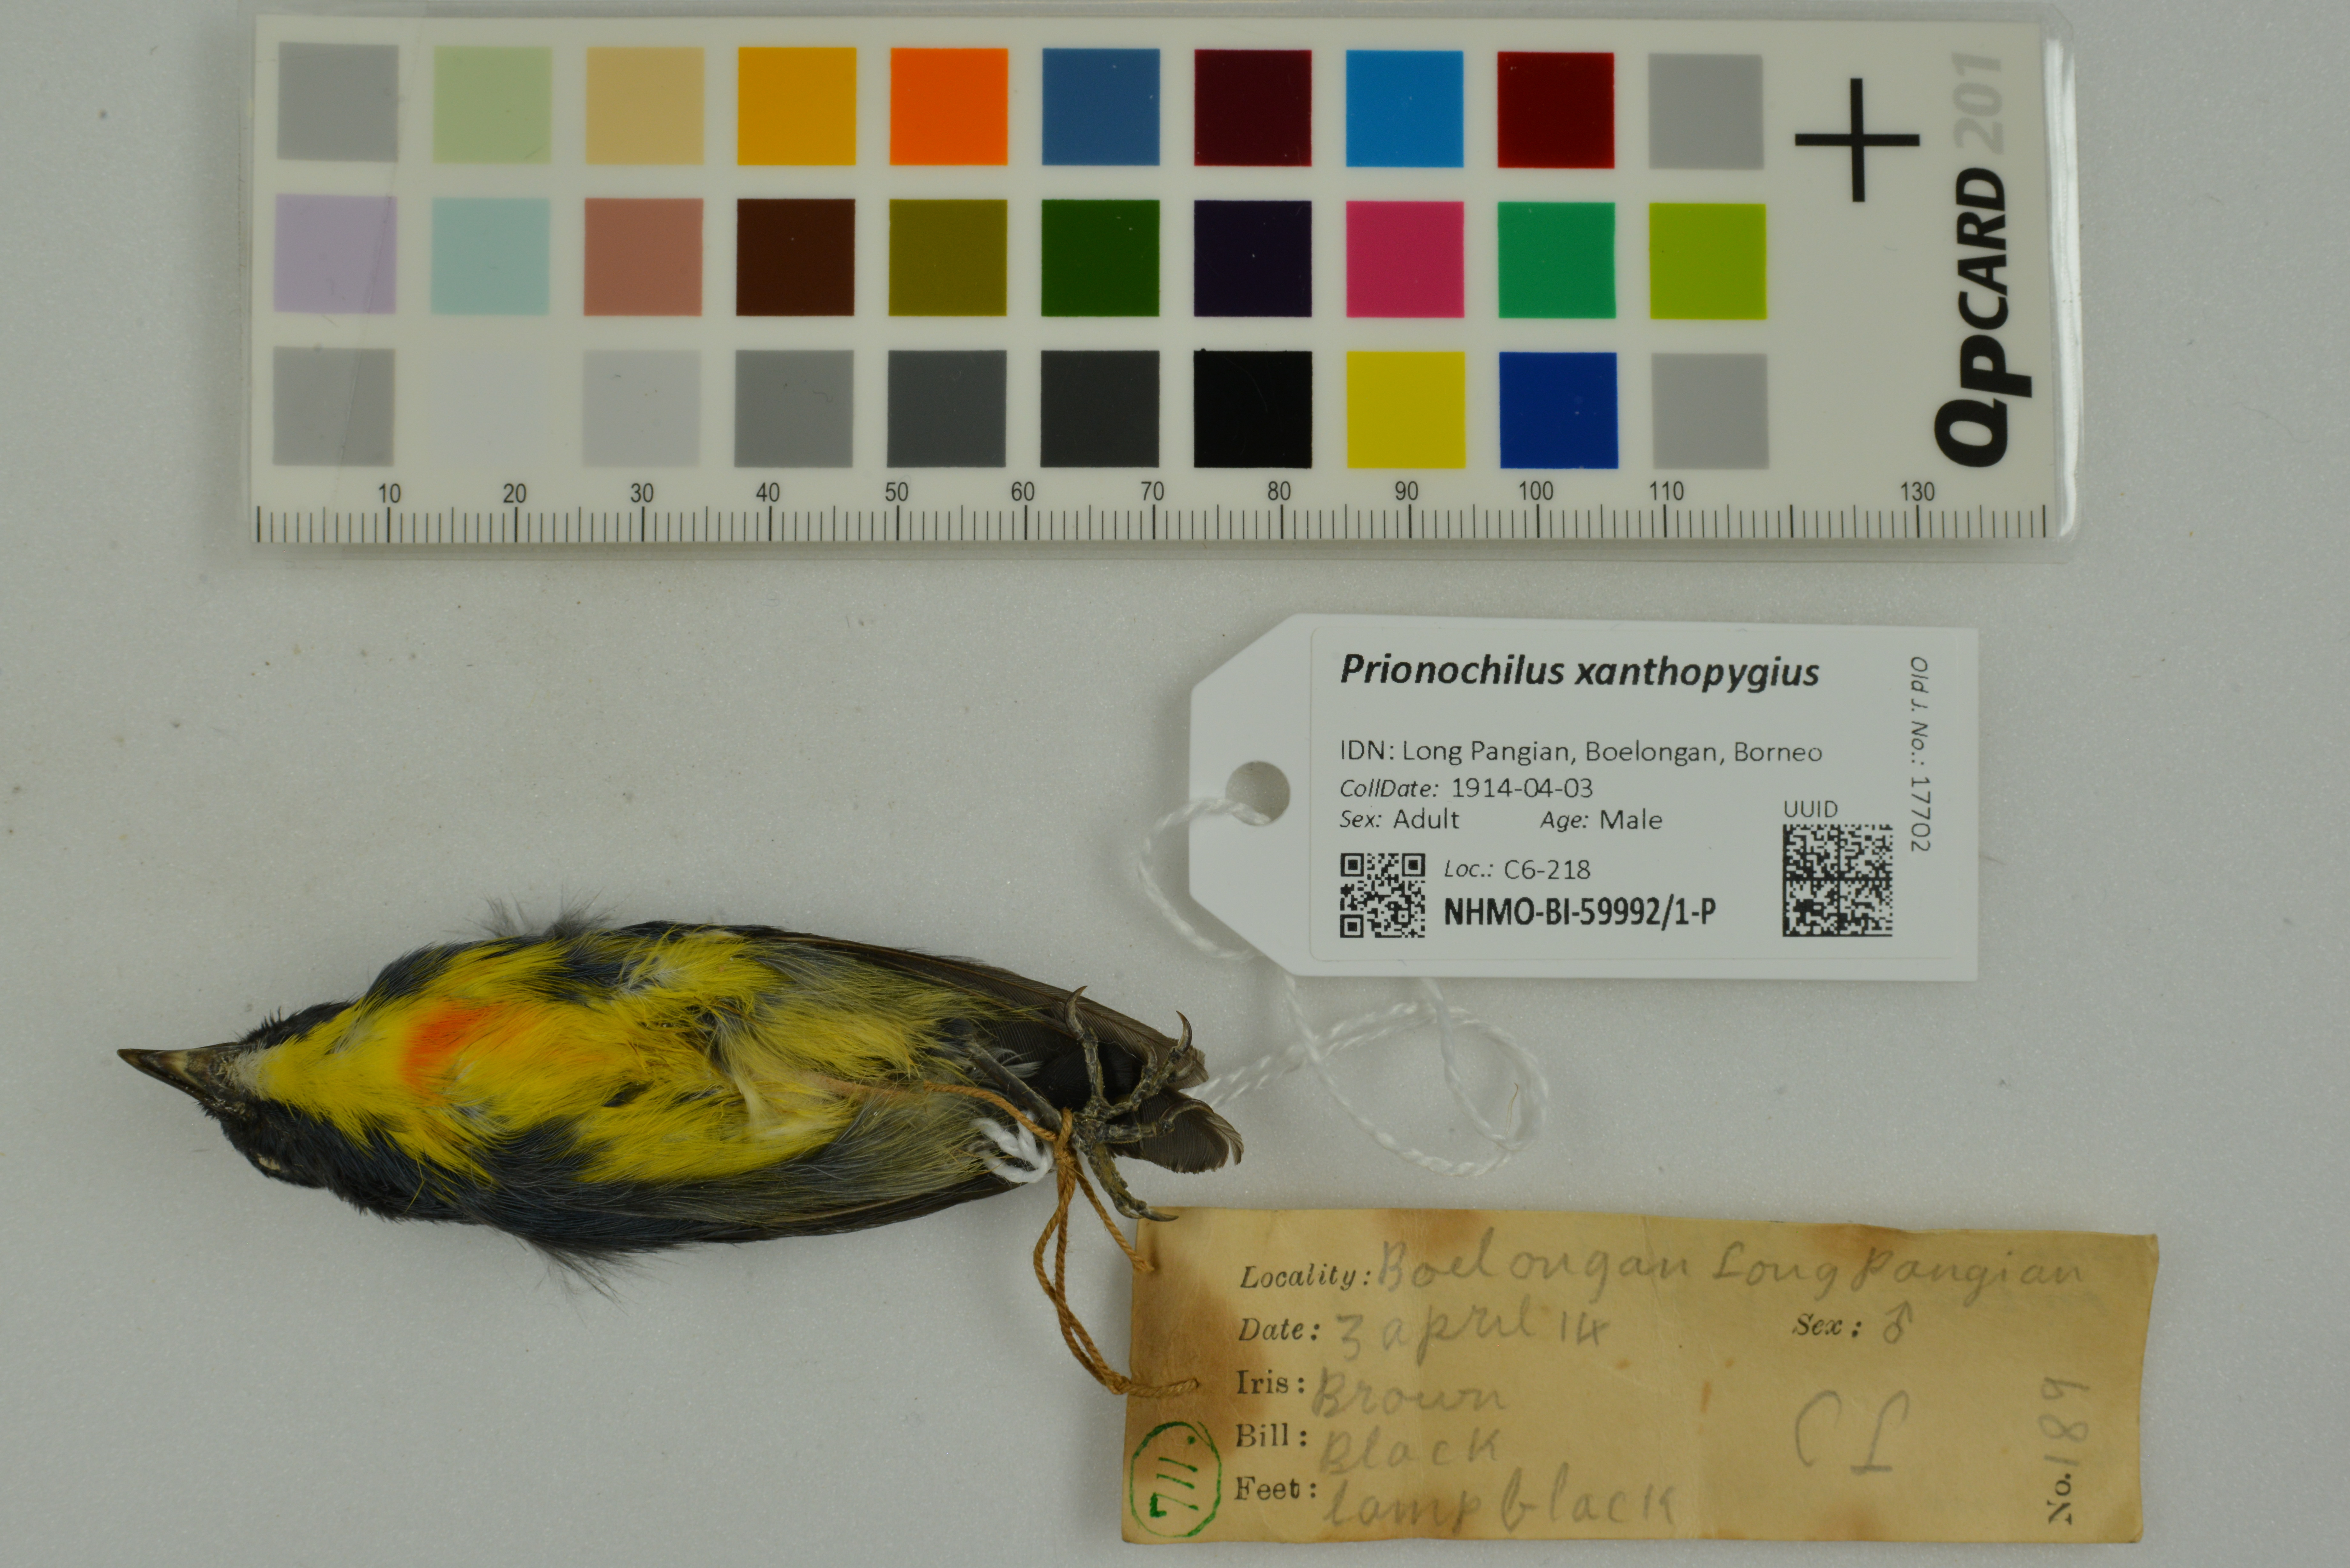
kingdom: Animalia
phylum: Chordata
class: Aves
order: Passeriformes
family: Dicaeidae
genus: Prionochilus
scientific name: Prionochilus xanthopygius
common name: Yellow-rumped flowerpecker
